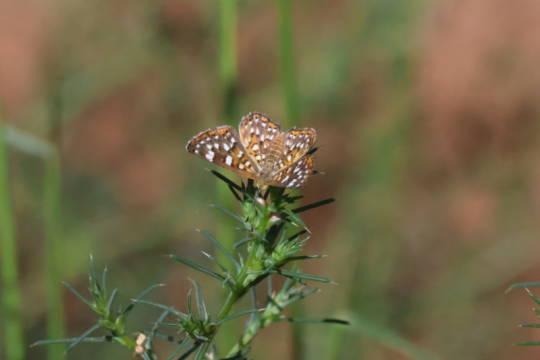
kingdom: Animalia
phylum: Arthropoda
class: Insecta
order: Lepidoptera
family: Riodinidae
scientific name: Riodinidae
